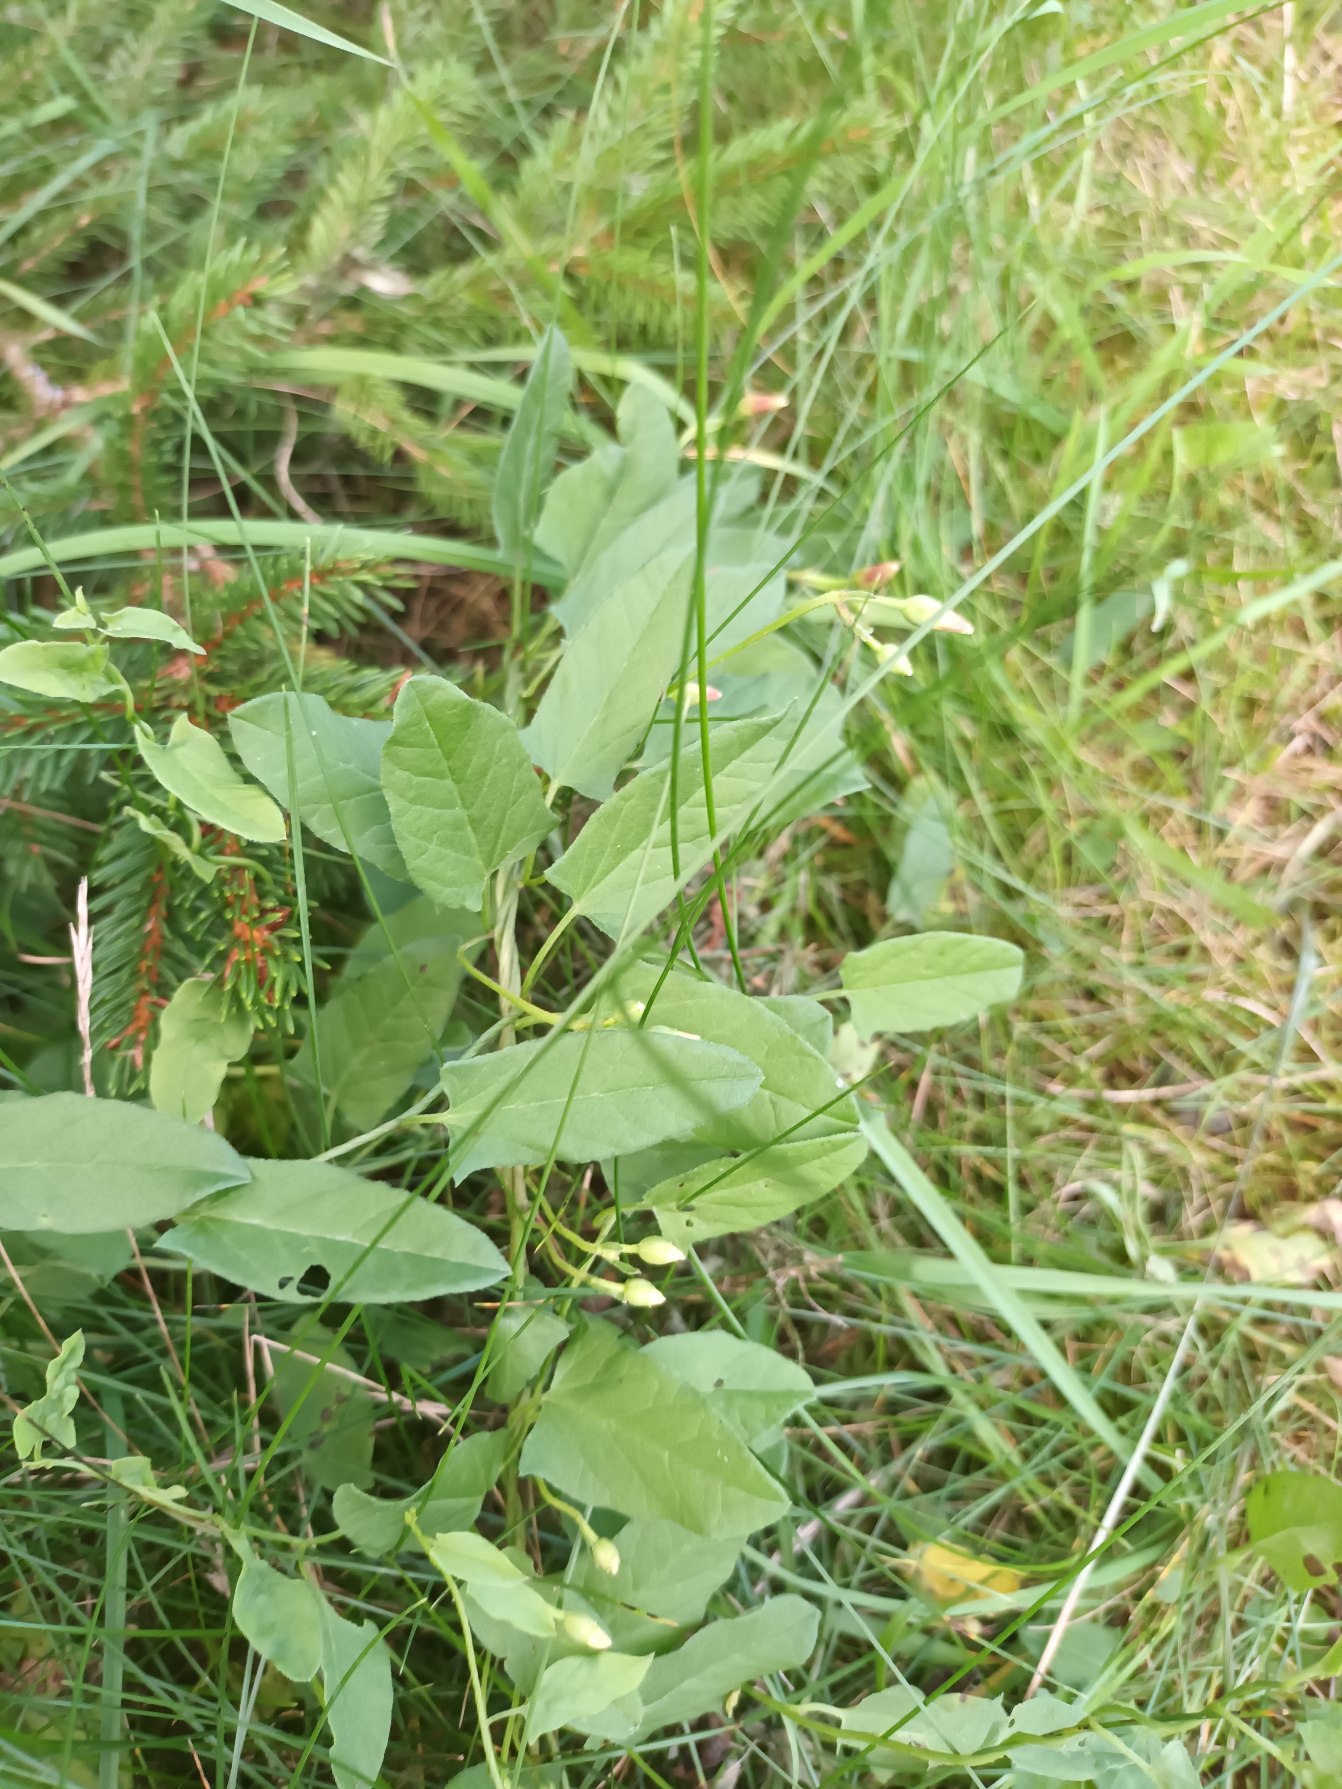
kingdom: Plantae
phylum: Tracheophyta
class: Magnoliopsida
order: Solanales
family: Convolvulaceae
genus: Convolvulus
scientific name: Convolvulus arvensis
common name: Ager-snerle
